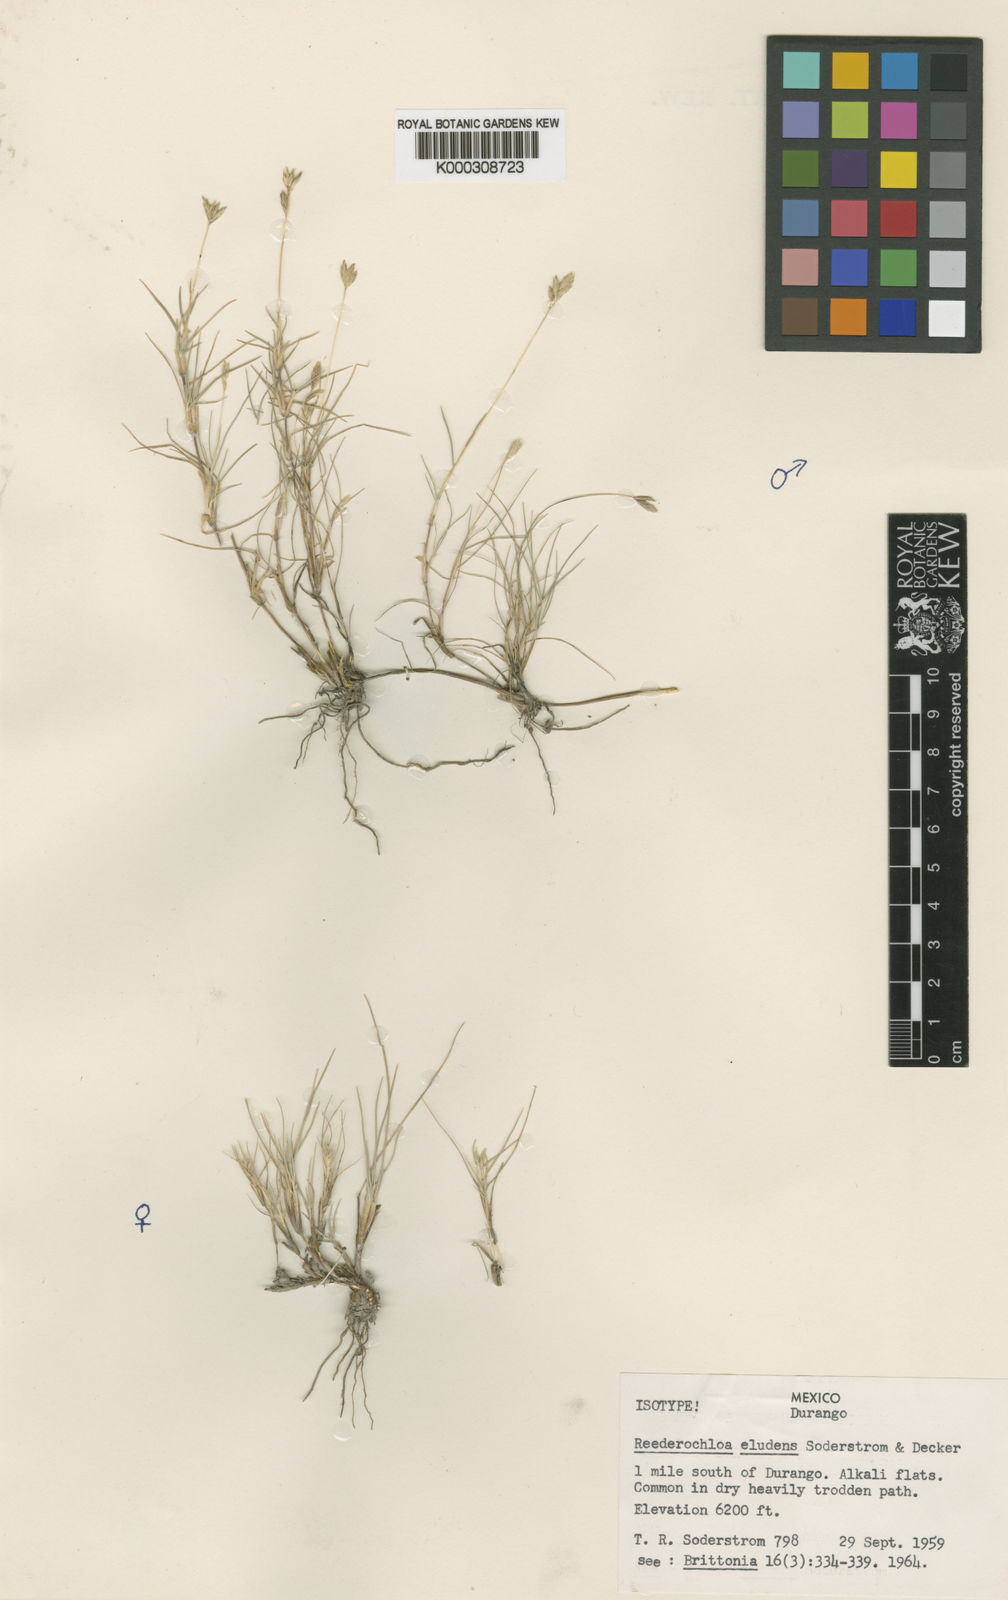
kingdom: Plantae
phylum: Tracheophyta
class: Liliopsida
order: Poales
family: Poaceae
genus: Distichlis
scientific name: Distichlis eludens
